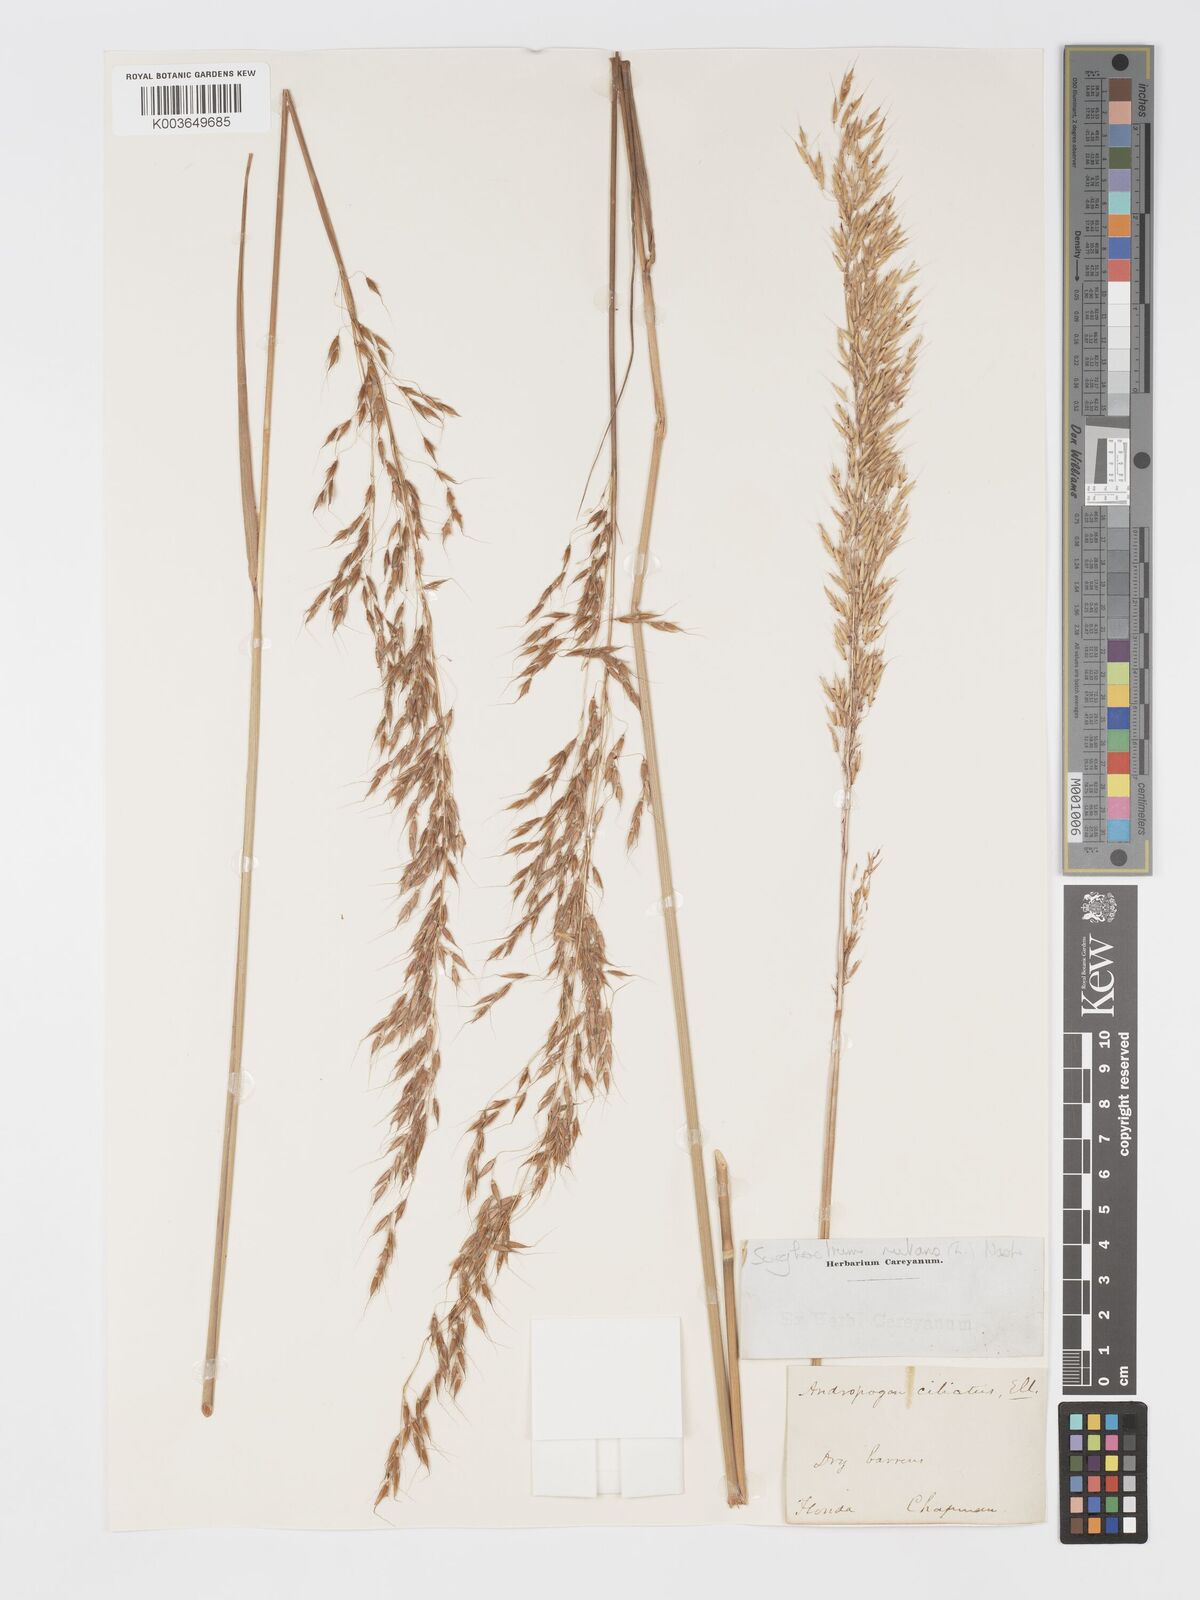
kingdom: Plantae
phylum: Tracheophyta
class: Liliopsida
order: Poales
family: Poaceae
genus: Sorghastrum
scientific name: Sorghastrum nutans
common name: Indian grass
